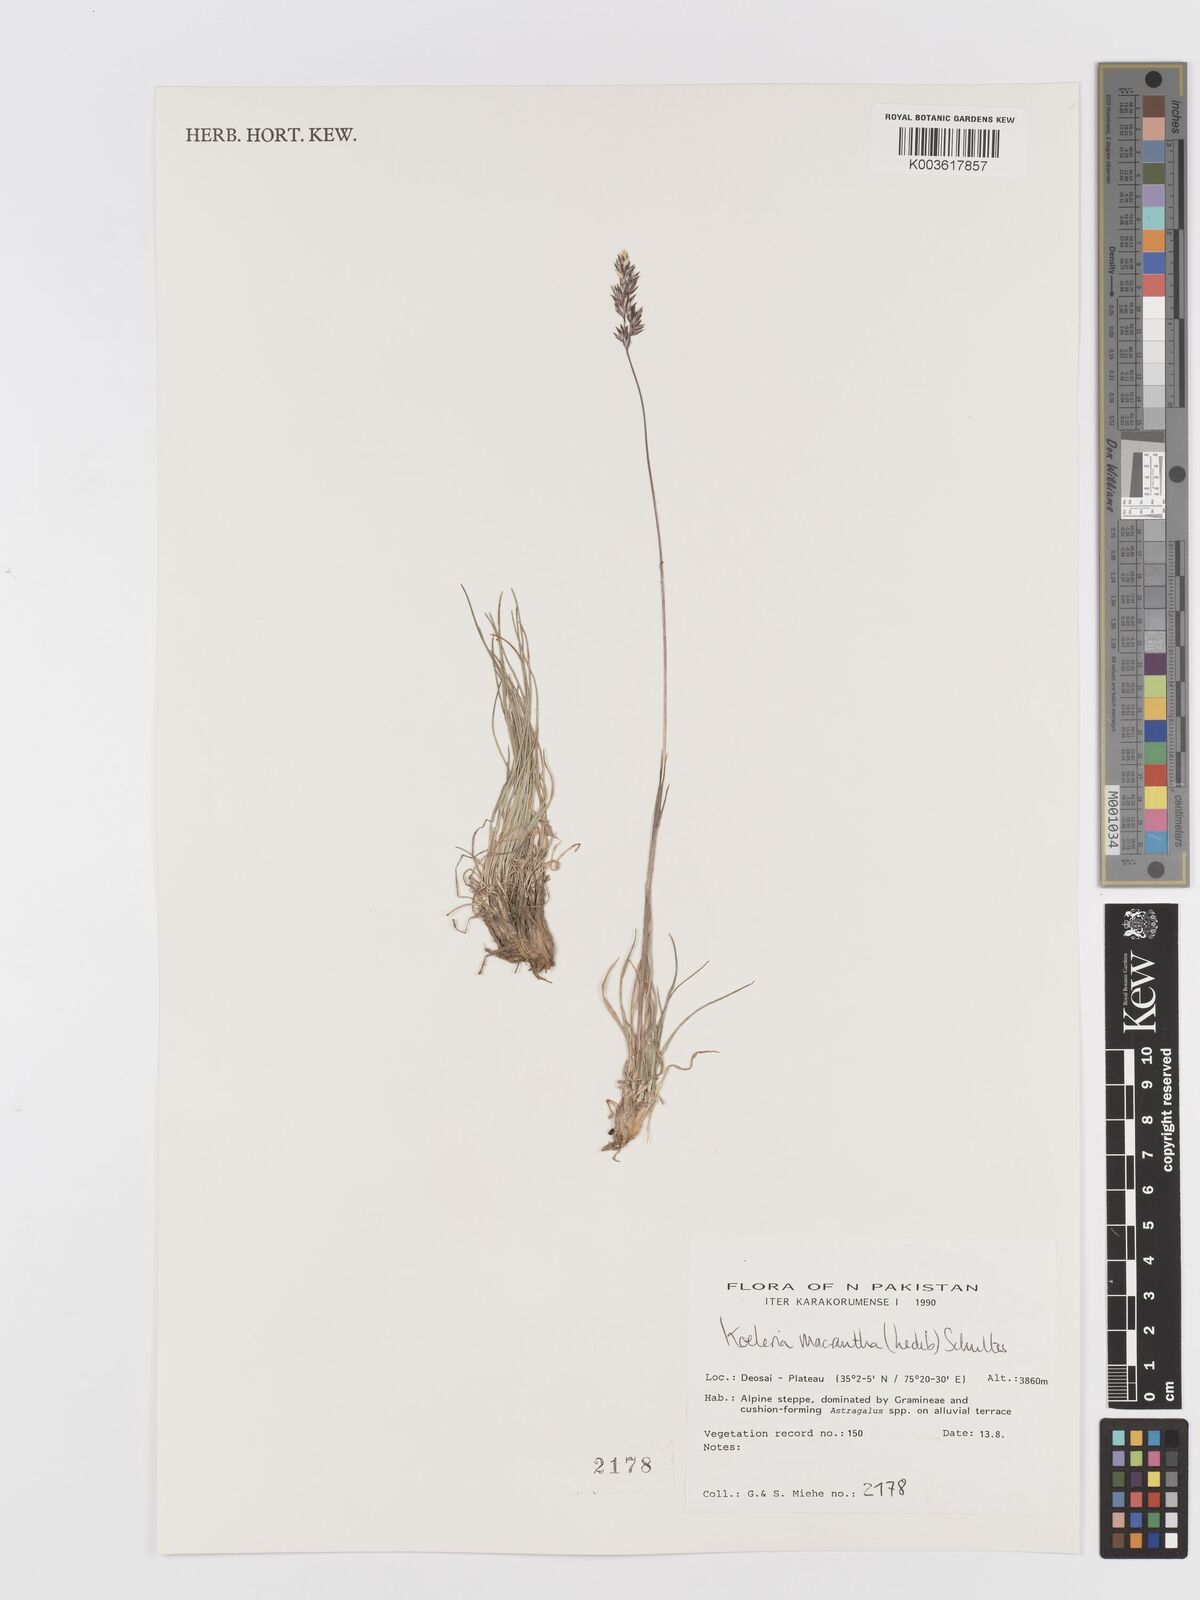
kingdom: Plantae
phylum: Tracheophyta
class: Liliopsida
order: Poales
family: Poaceae
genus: Koeleria
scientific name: Koeleria macrantha
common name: Crested hair-grass
